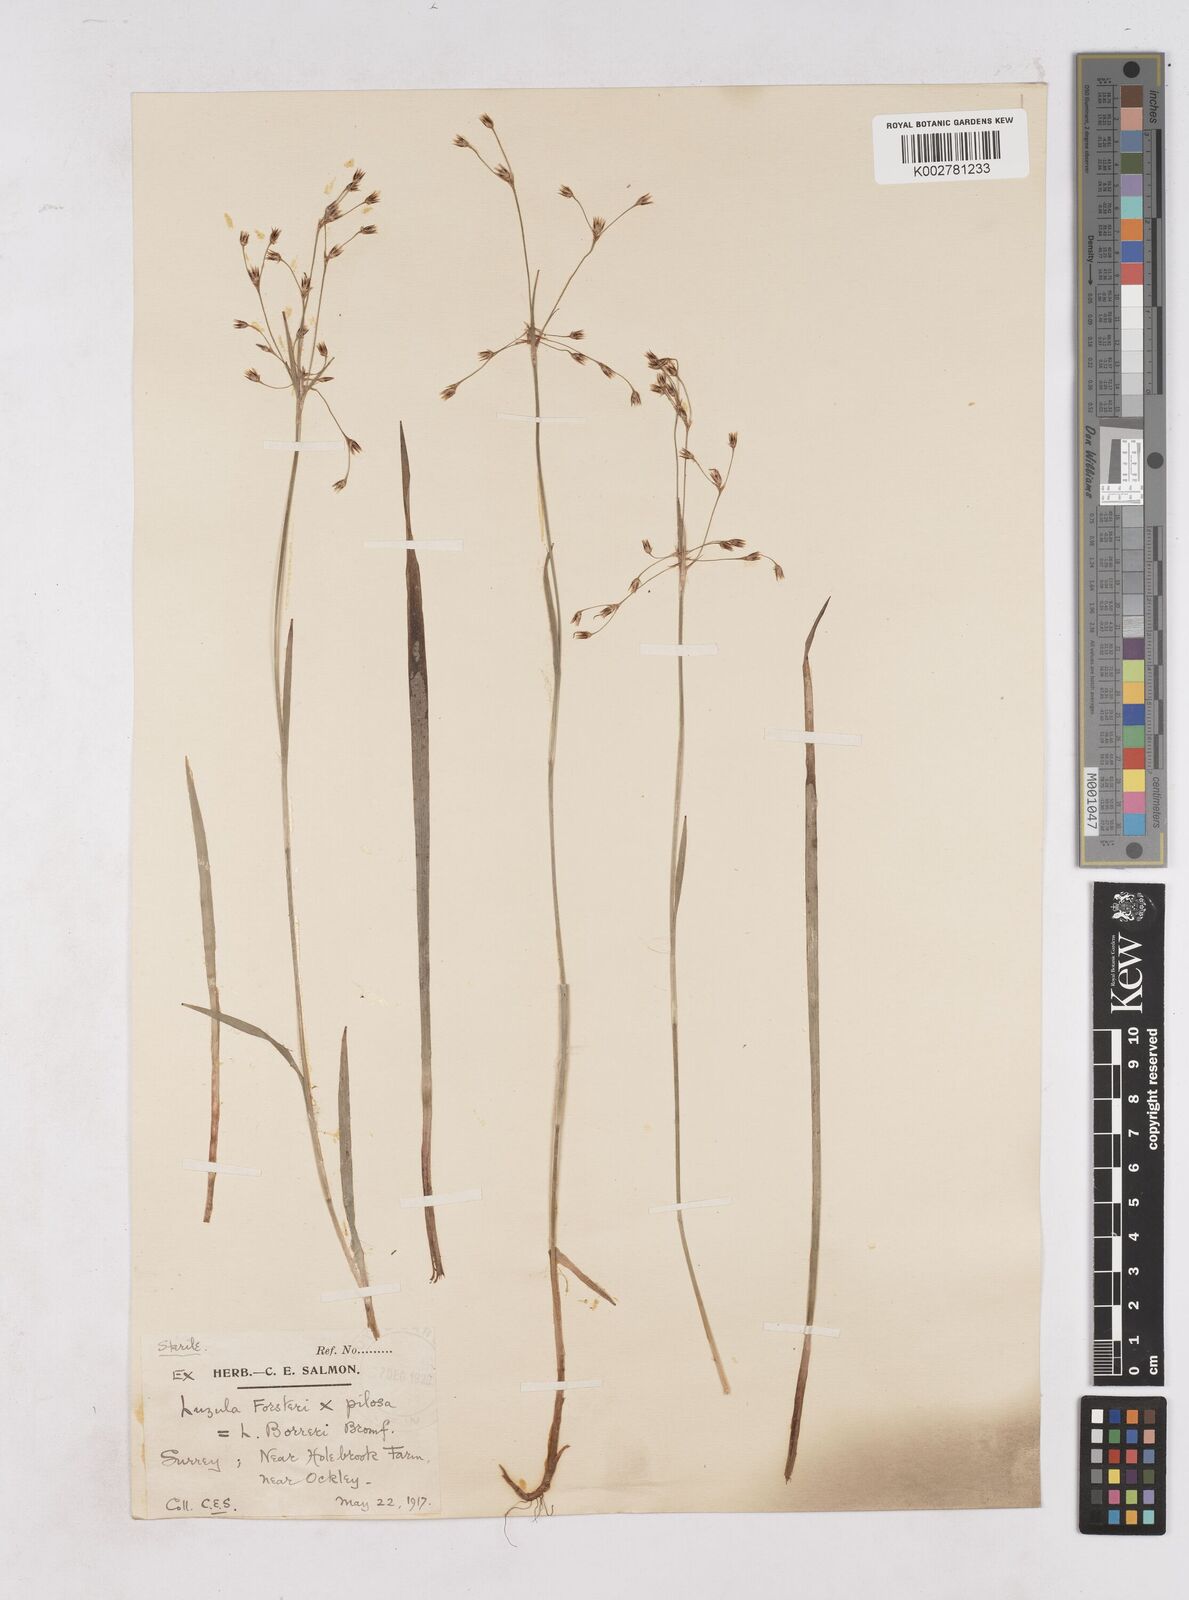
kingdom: Plantae
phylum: Tracheophyta
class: Liliopsida
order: Poales
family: Juncaceae
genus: Luzula
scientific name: Luzula forsteri
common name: Southern wood-rush
